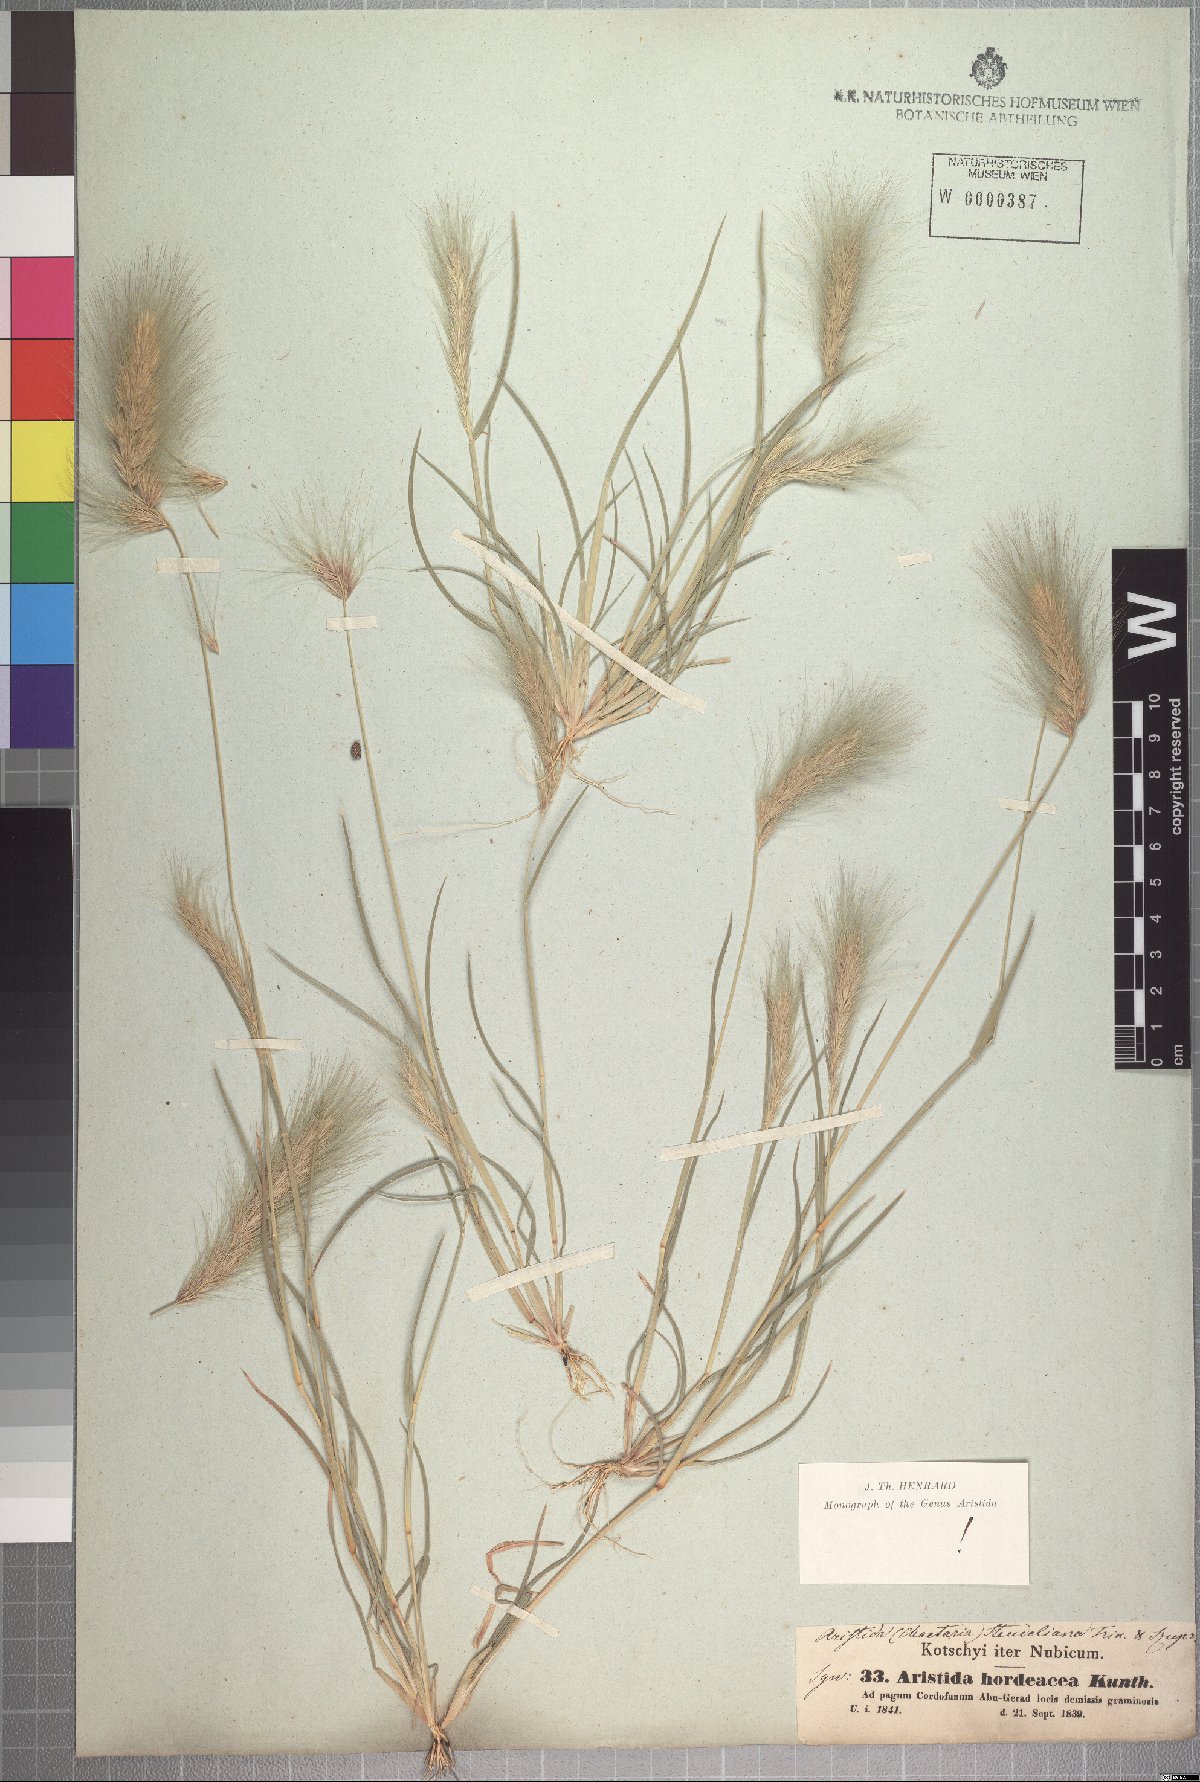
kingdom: Plantae
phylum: Tracheophyta
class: Liliopsida
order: Poales
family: Poaceae
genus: Aristida
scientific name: Aristida hordeacea
